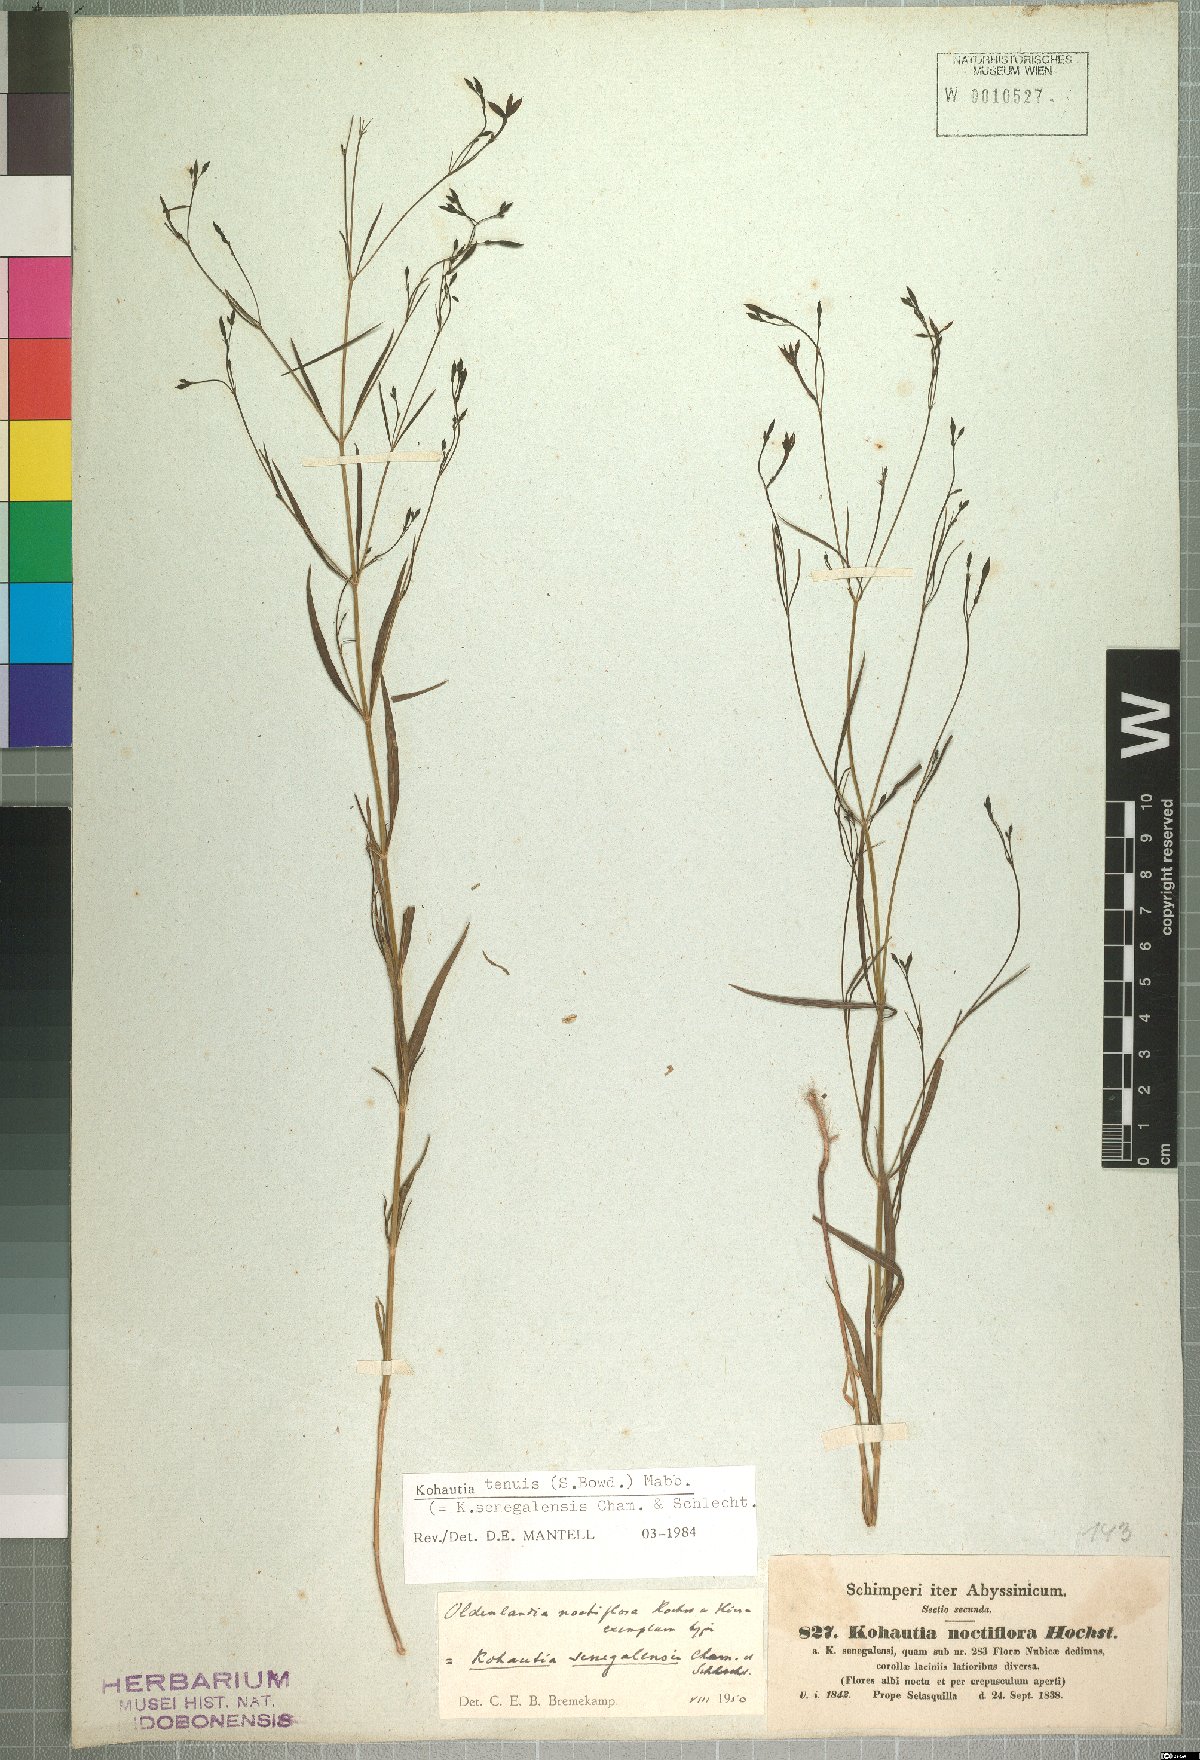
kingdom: Plantae
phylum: Tracheophyta
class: Magnoliopsida
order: Gentianales
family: Rubiaceae
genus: Kohautia
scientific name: Kohautia tenuis
